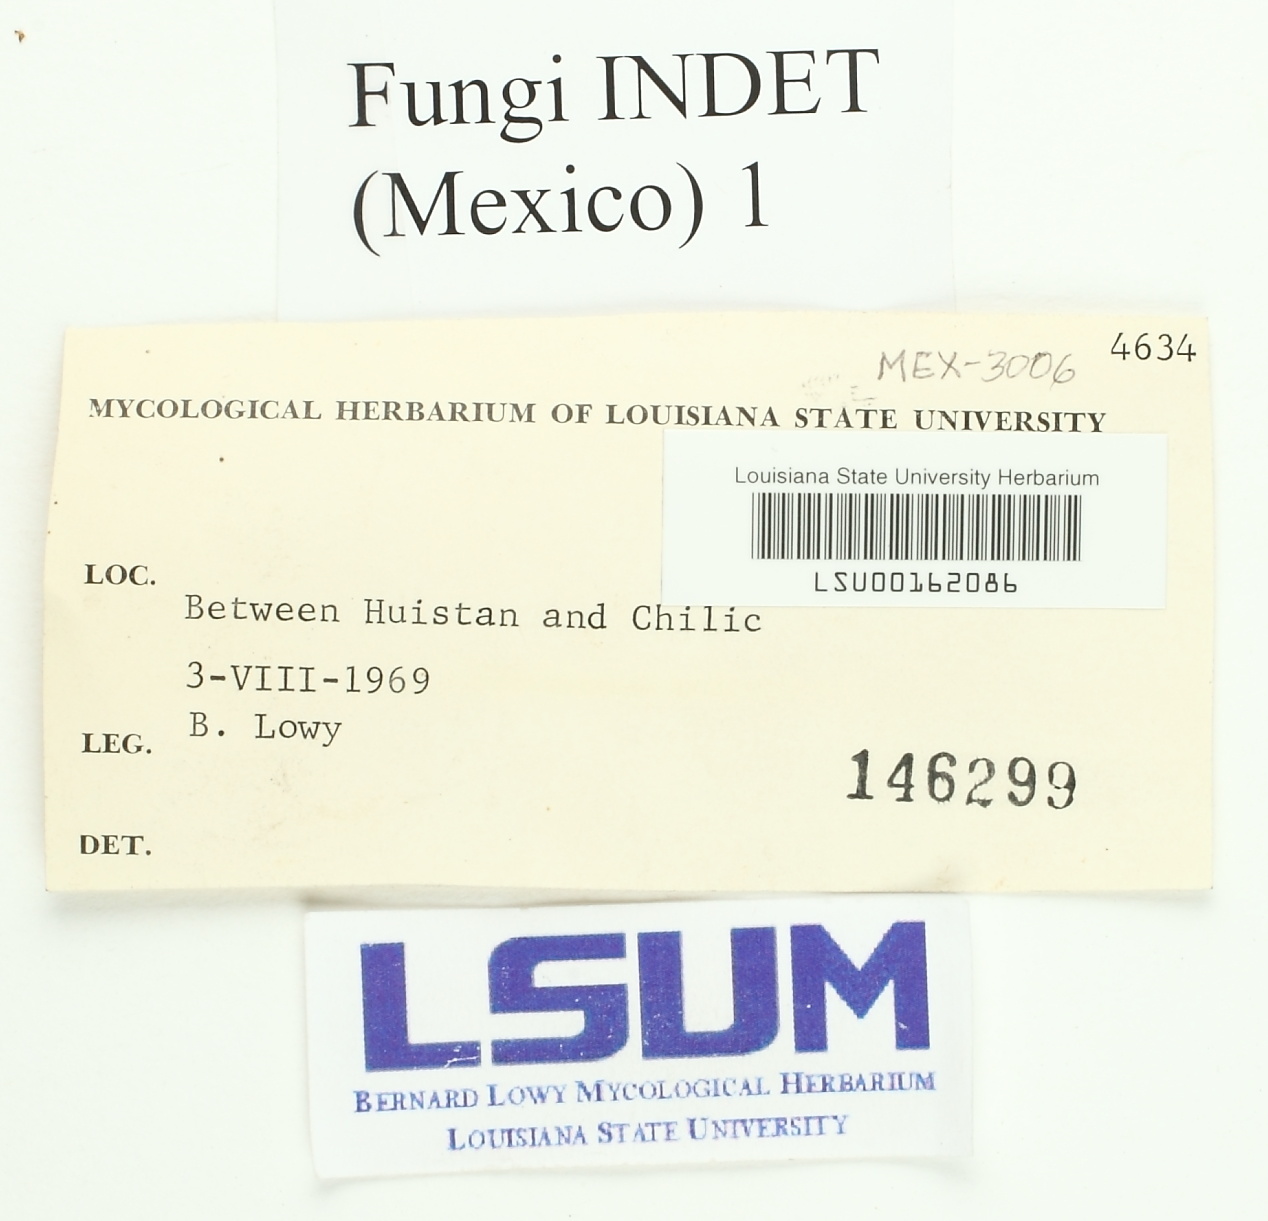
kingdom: Fungi
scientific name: Fungi
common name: Fungi
